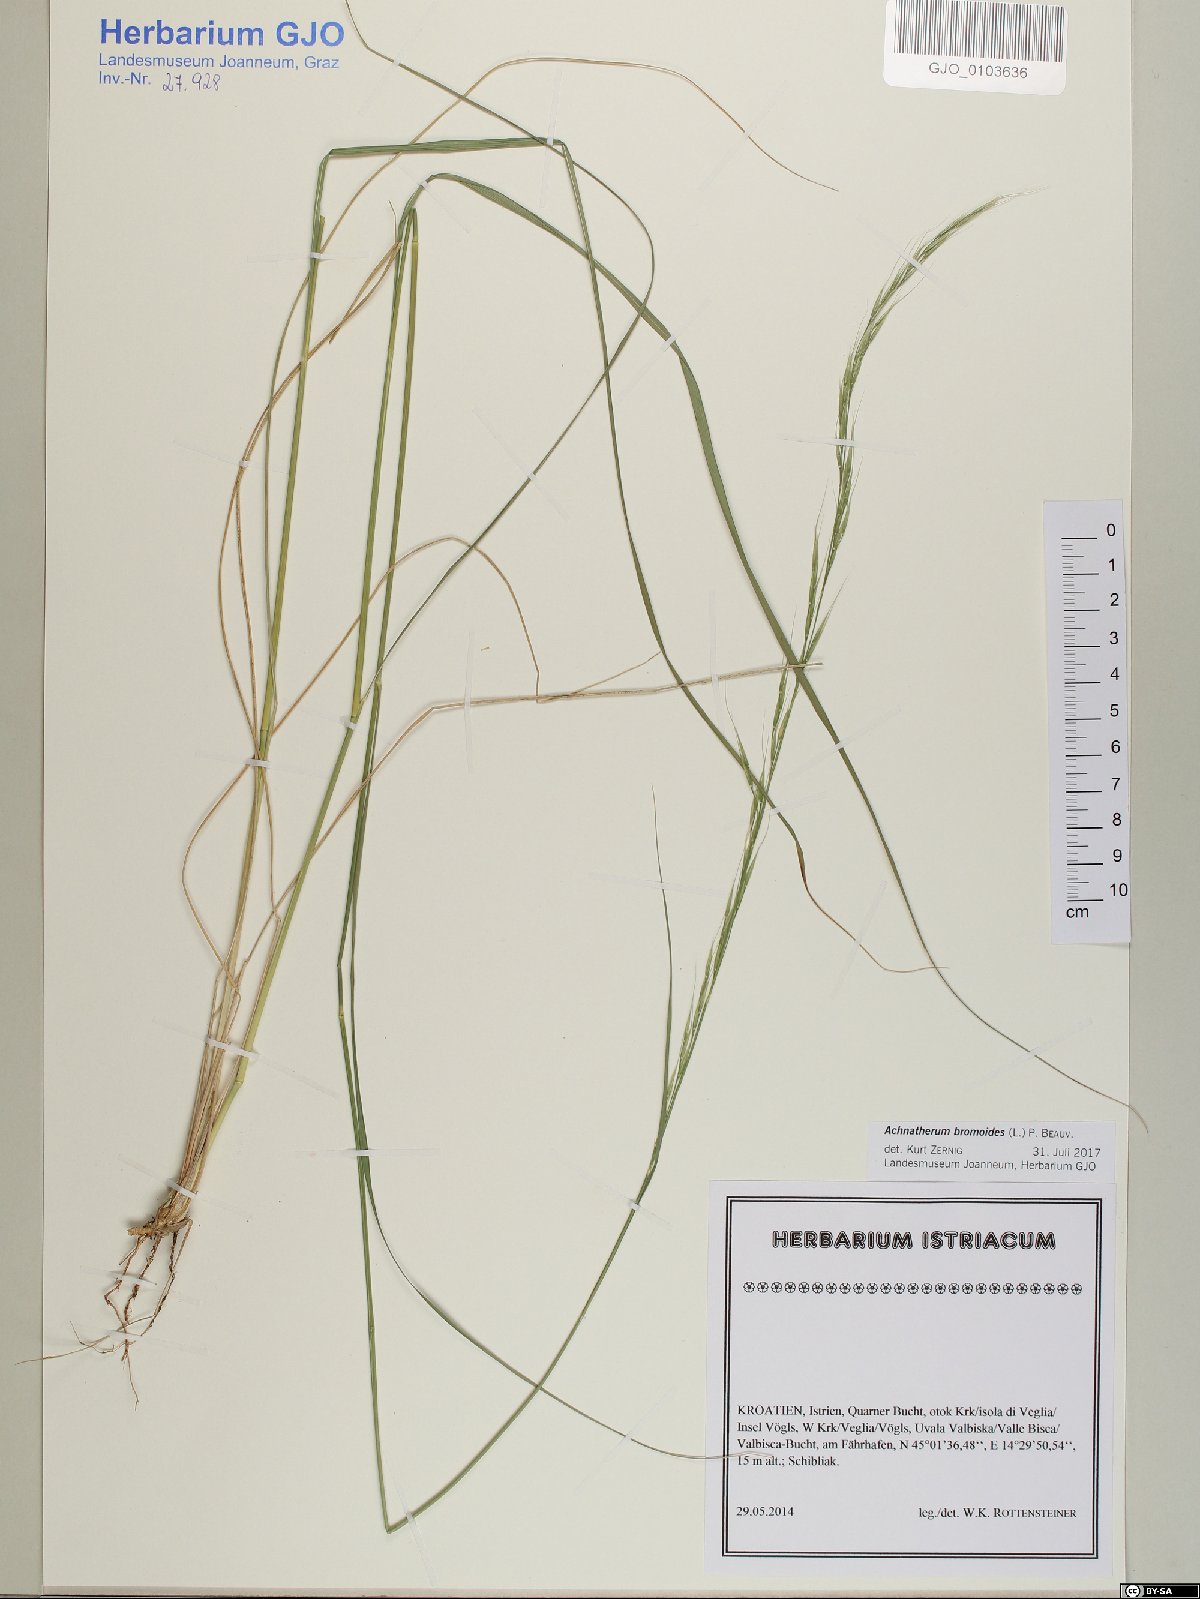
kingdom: Plantae
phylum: Tracheophyta
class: Liliopsida
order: Poales
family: Poaceae
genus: Achnatherum
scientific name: Achnatherum bromoides
